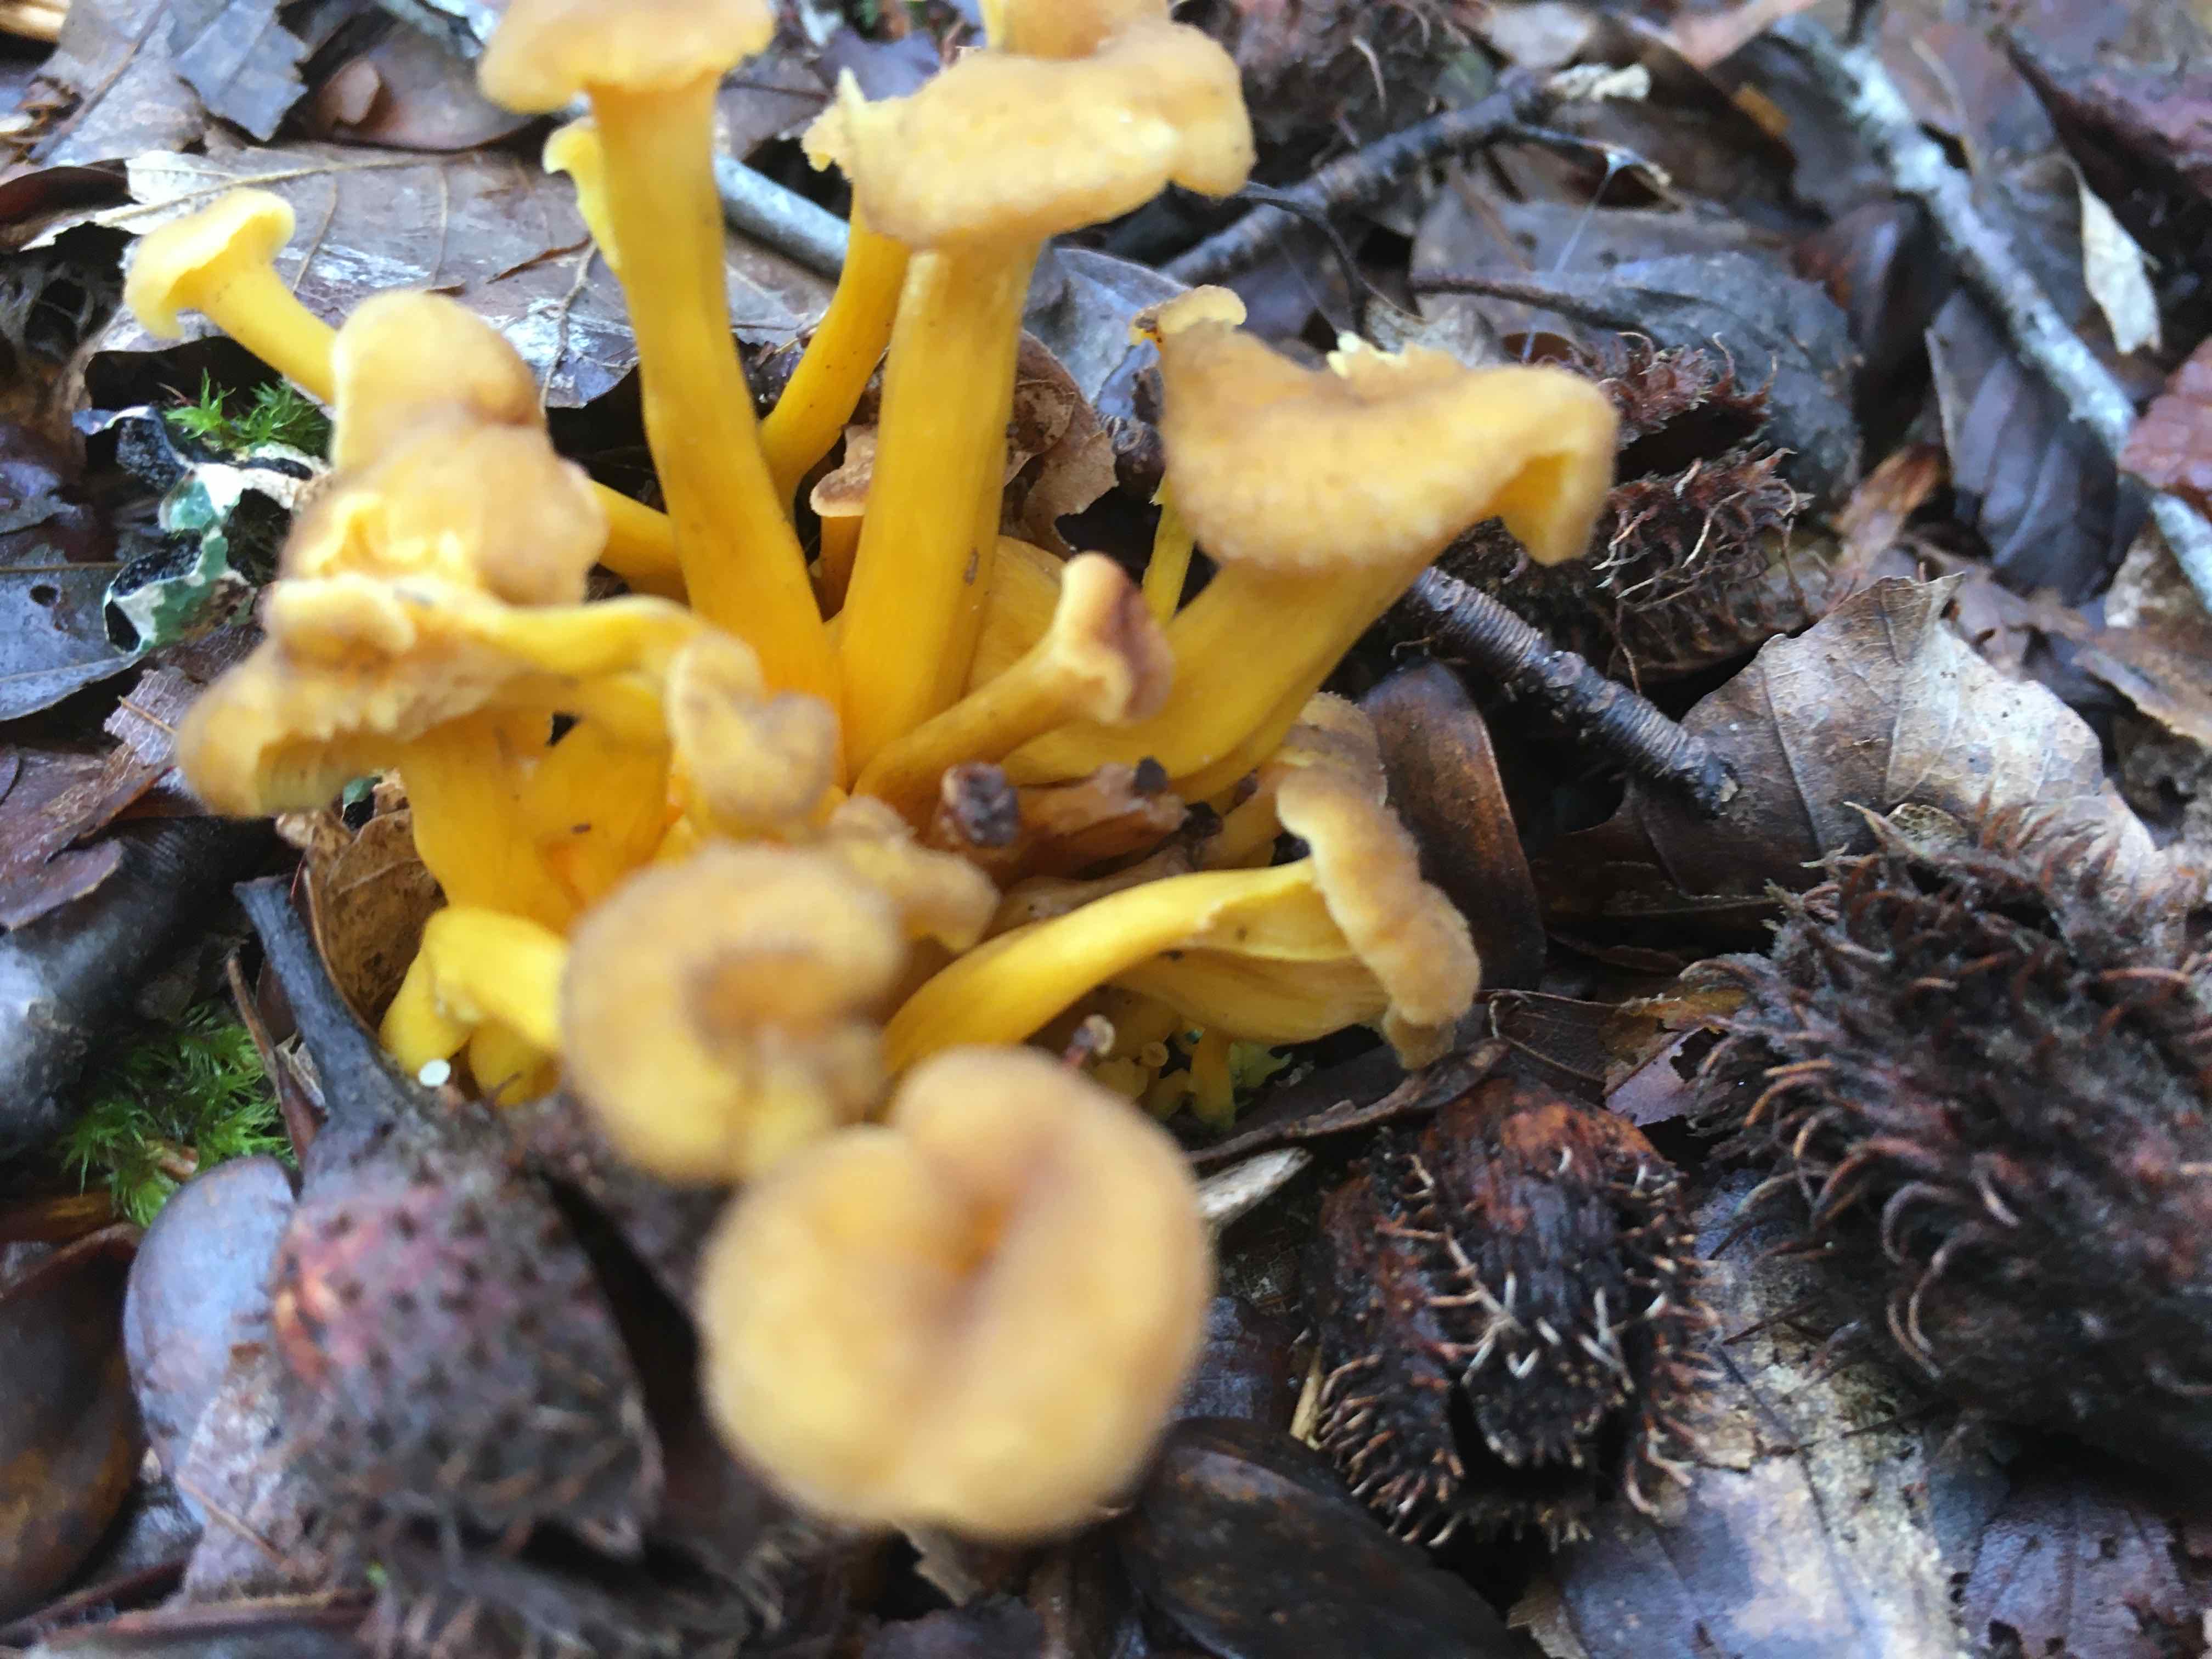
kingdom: Fungi
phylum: Basidiomycota
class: Agaricomycetes
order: Cantharellales
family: Hydnaceae
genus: Craterellus
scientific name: Craterellus tubaeformis
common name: tragt-kantarel
